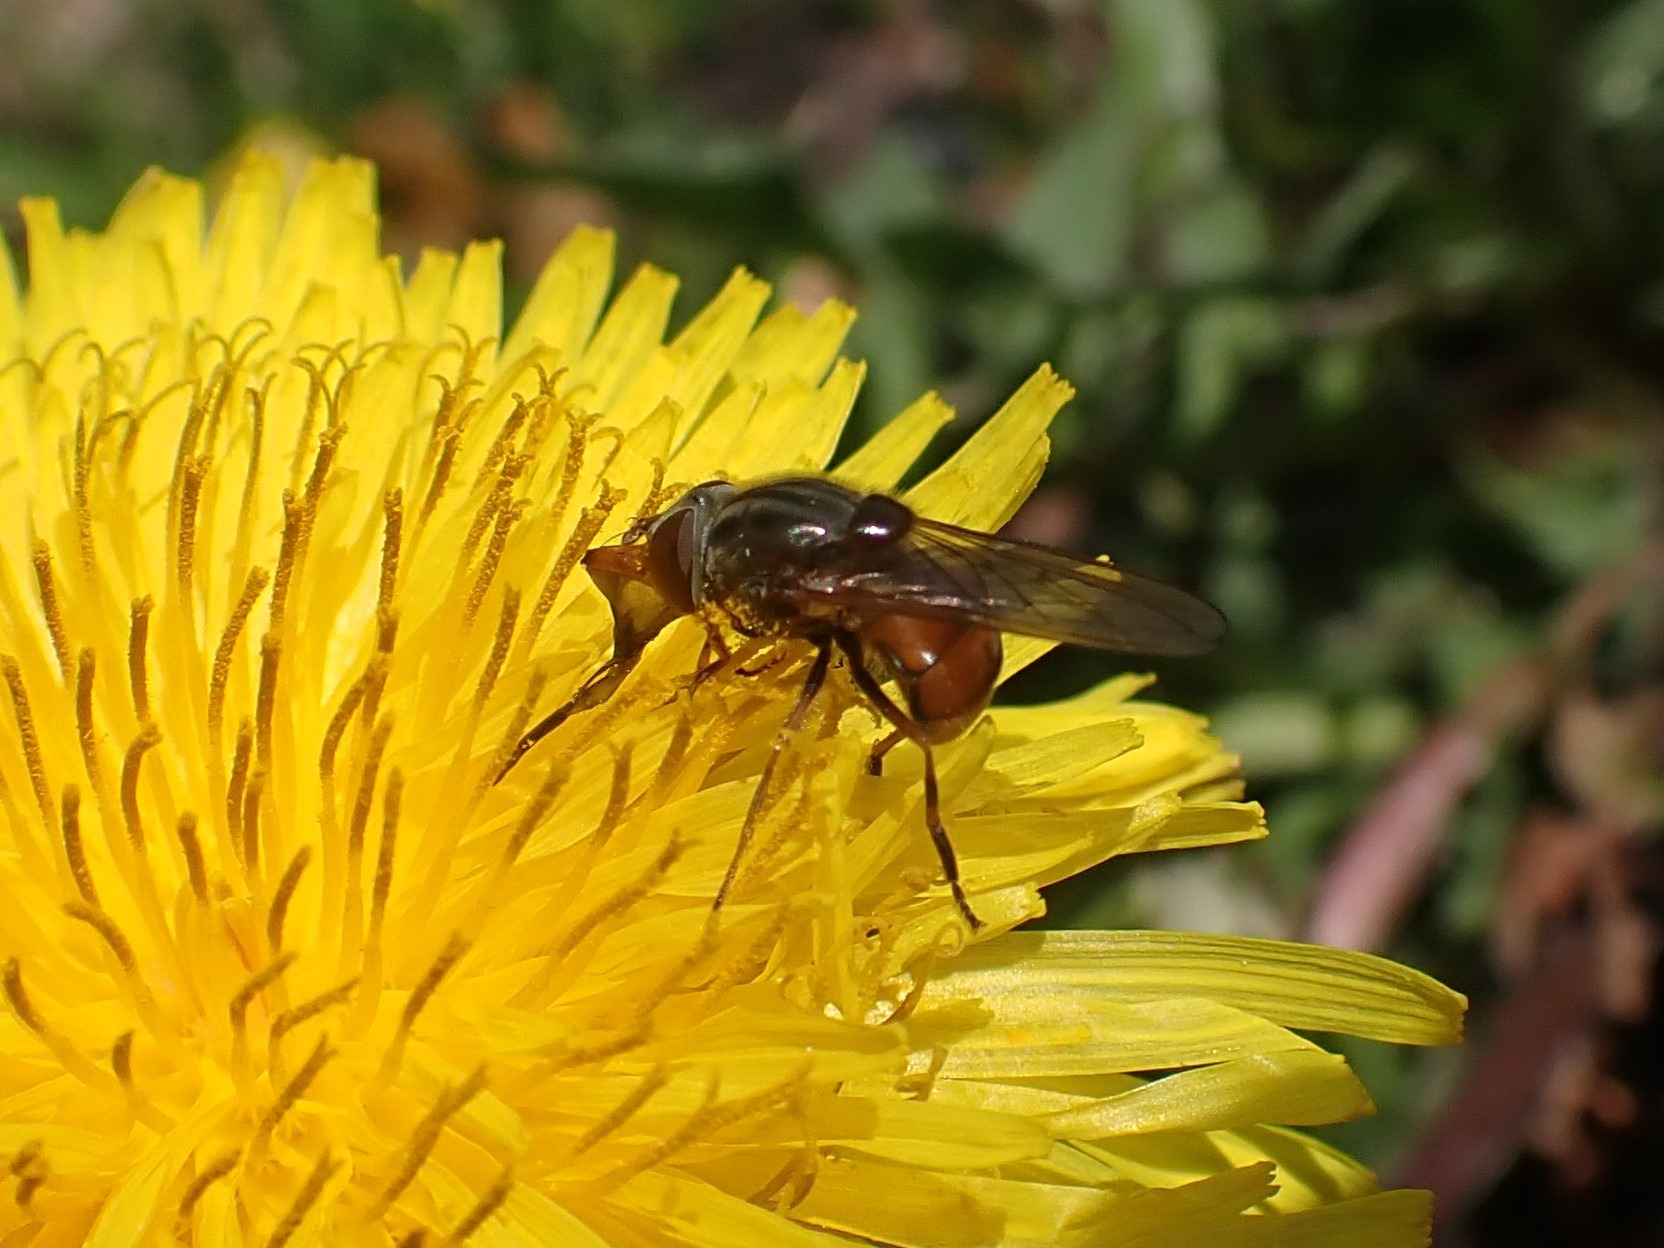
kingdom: Animalia
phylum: Arthropoda
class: Insecta
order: Diptera
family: Syrphidae
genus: Rhingia
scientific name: Rhingia campestris
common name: Mark-snabelsvirreflue
